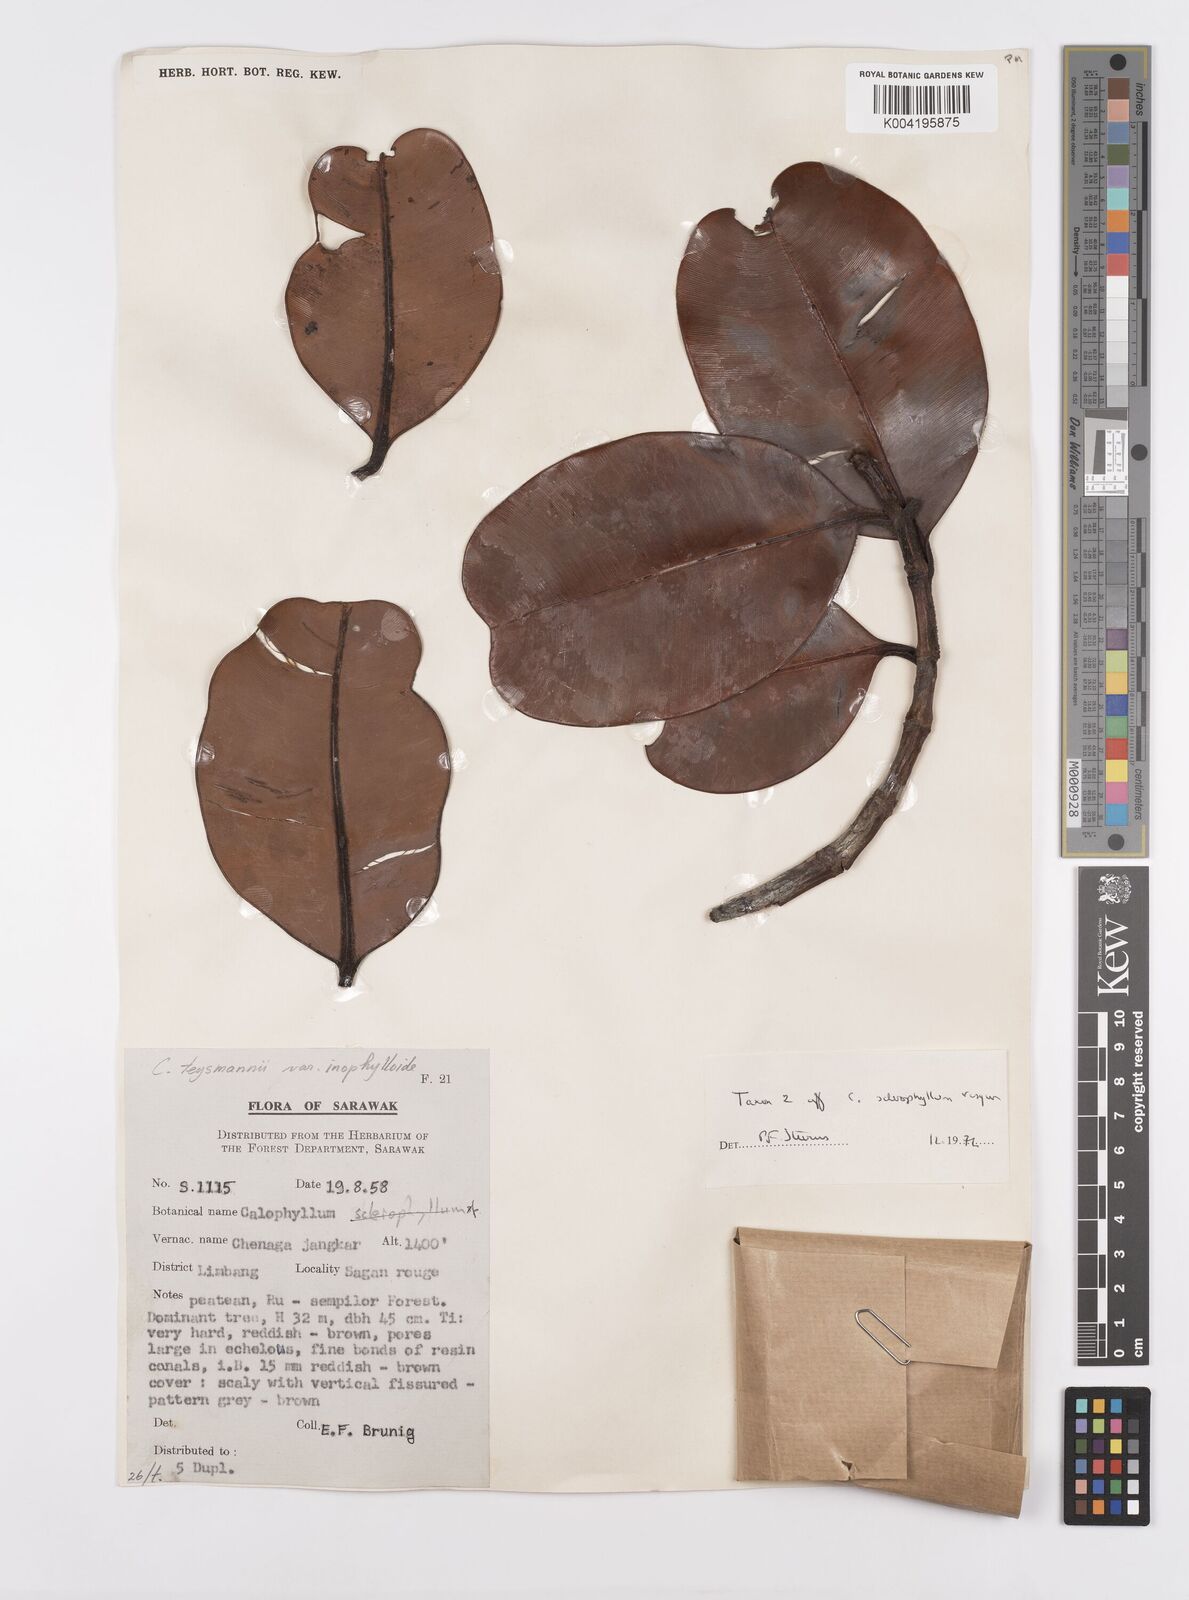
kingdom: Plantae
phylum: Tracheophyta
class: Magnoliopsida
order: Malpighiales
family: Calophyllaceae
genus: Calophyllum
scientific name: Calophyllum teysmannii
